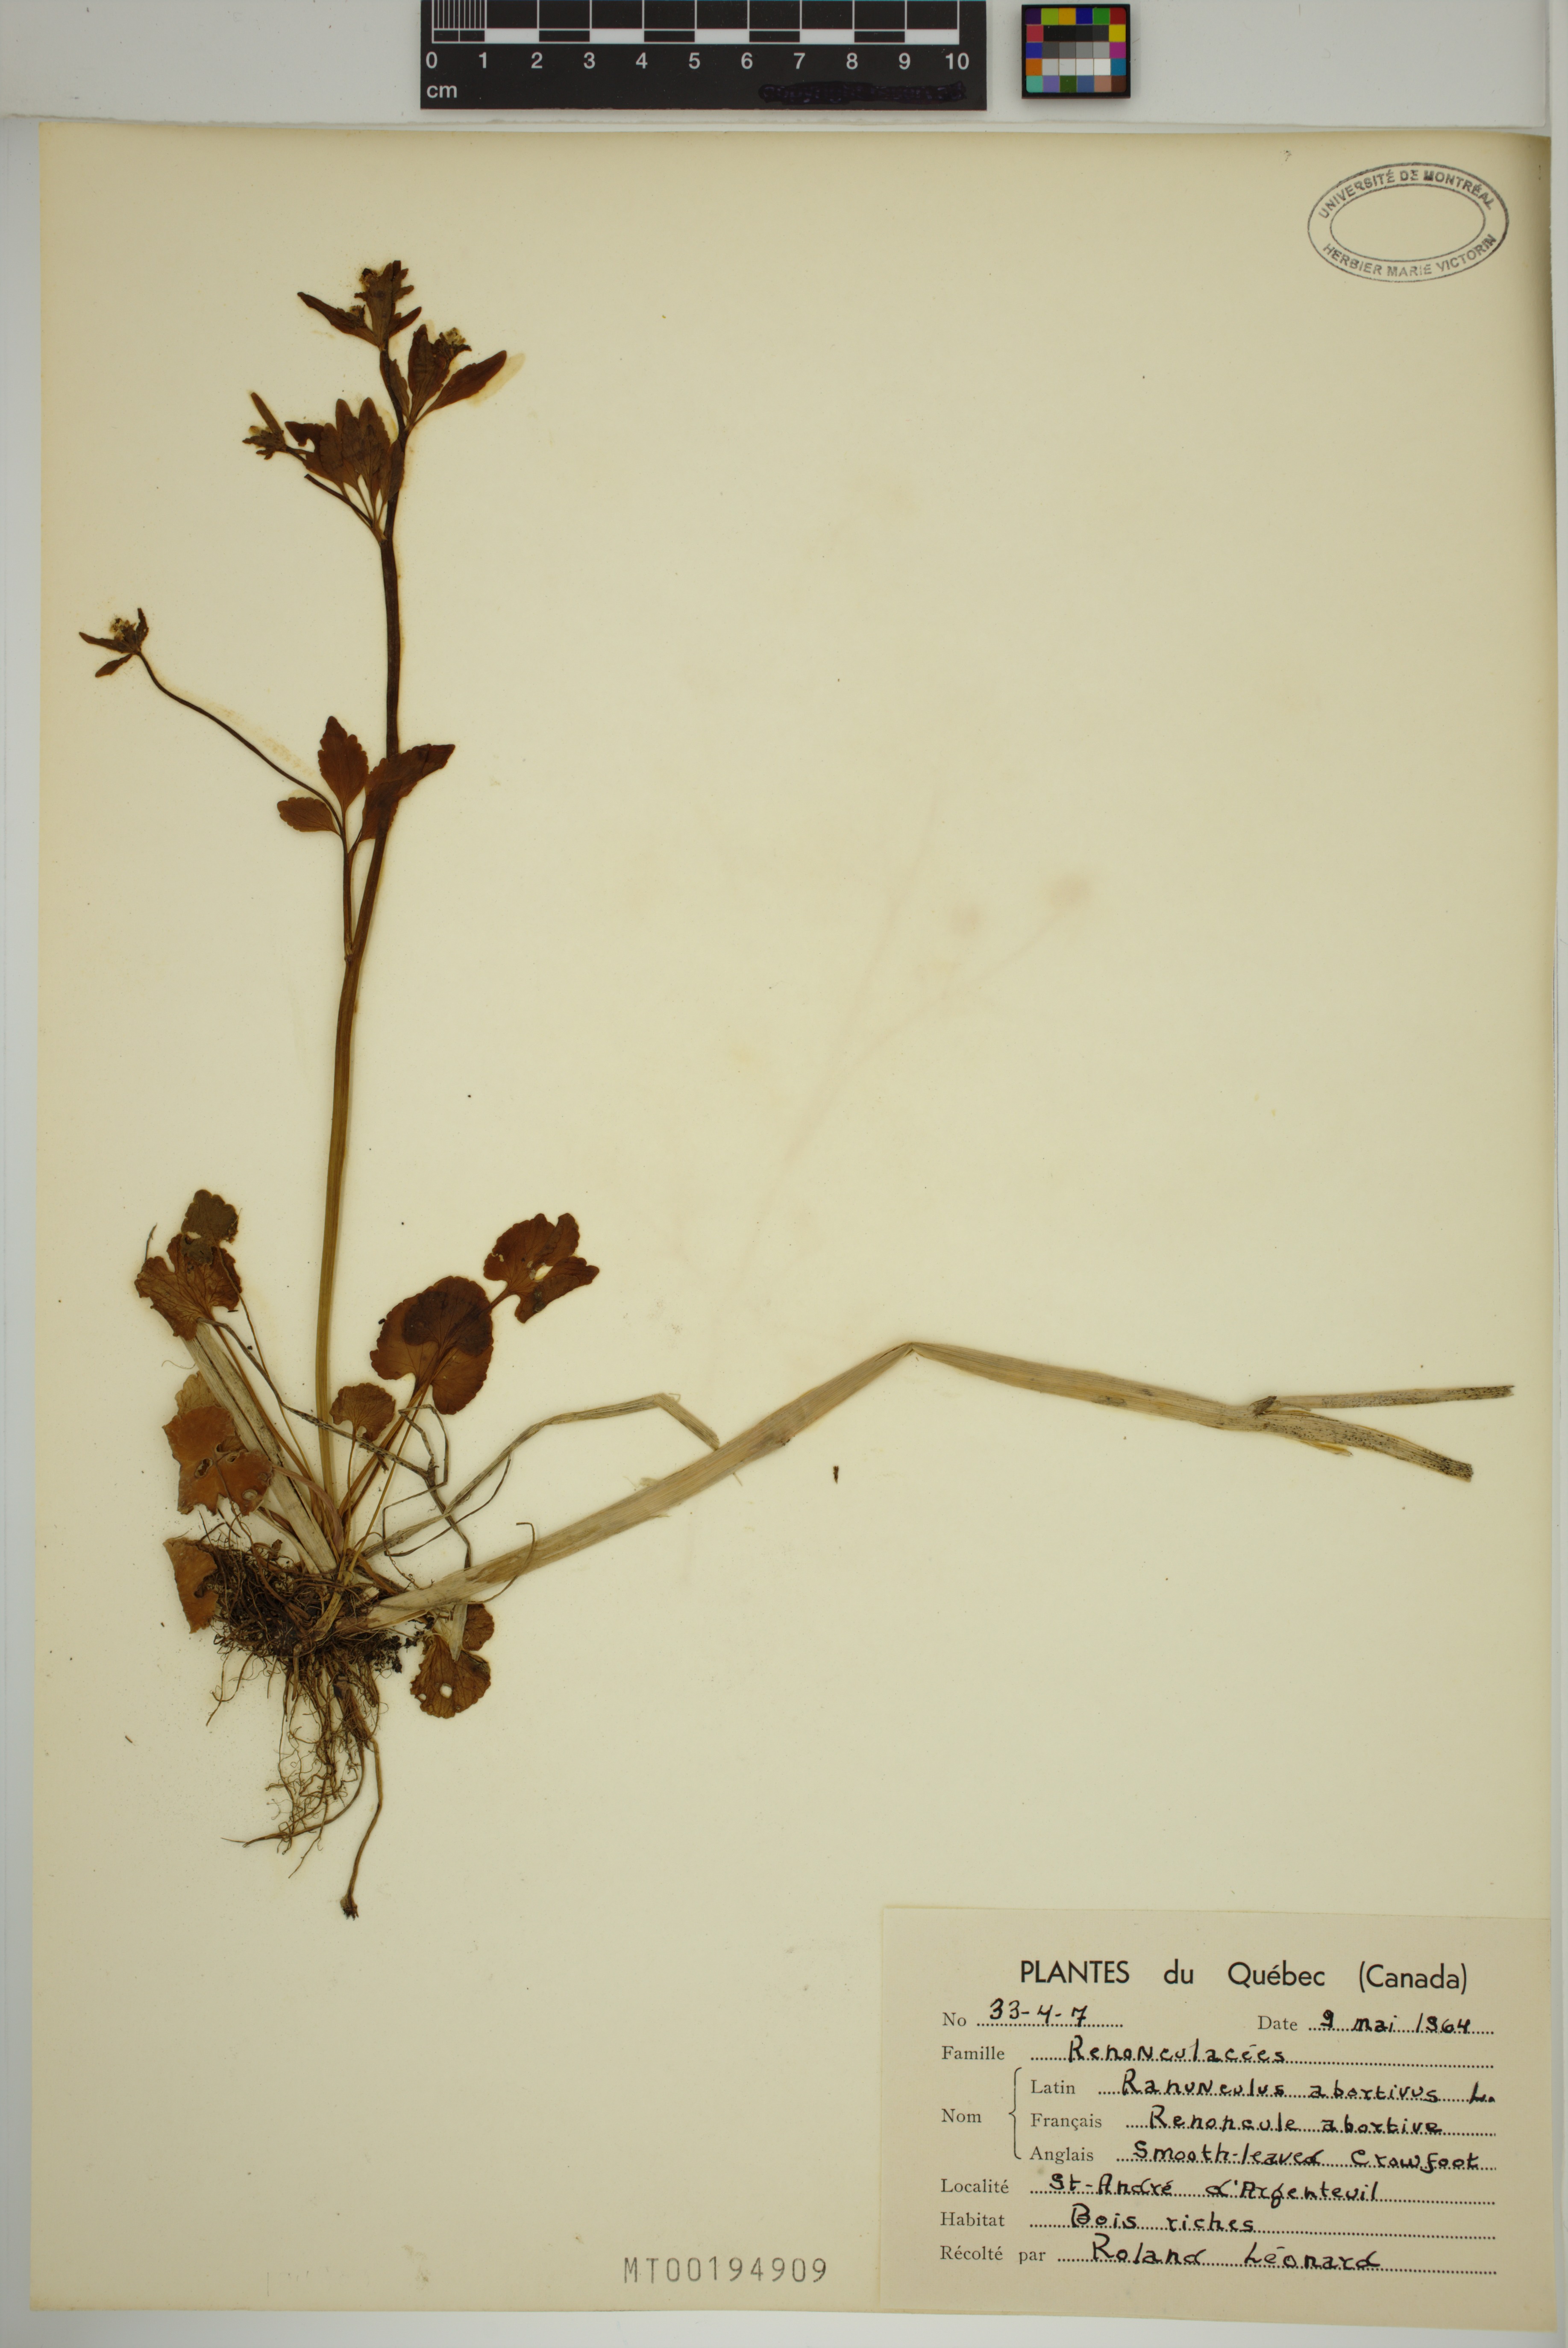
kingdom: Plantae
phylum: Tracheophyta
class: Magnoliopsida
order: Ranunculales
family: Ranunculaceae
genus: Ranunculus
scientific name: Ranunculus abortivus
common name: Early wood buttercup
